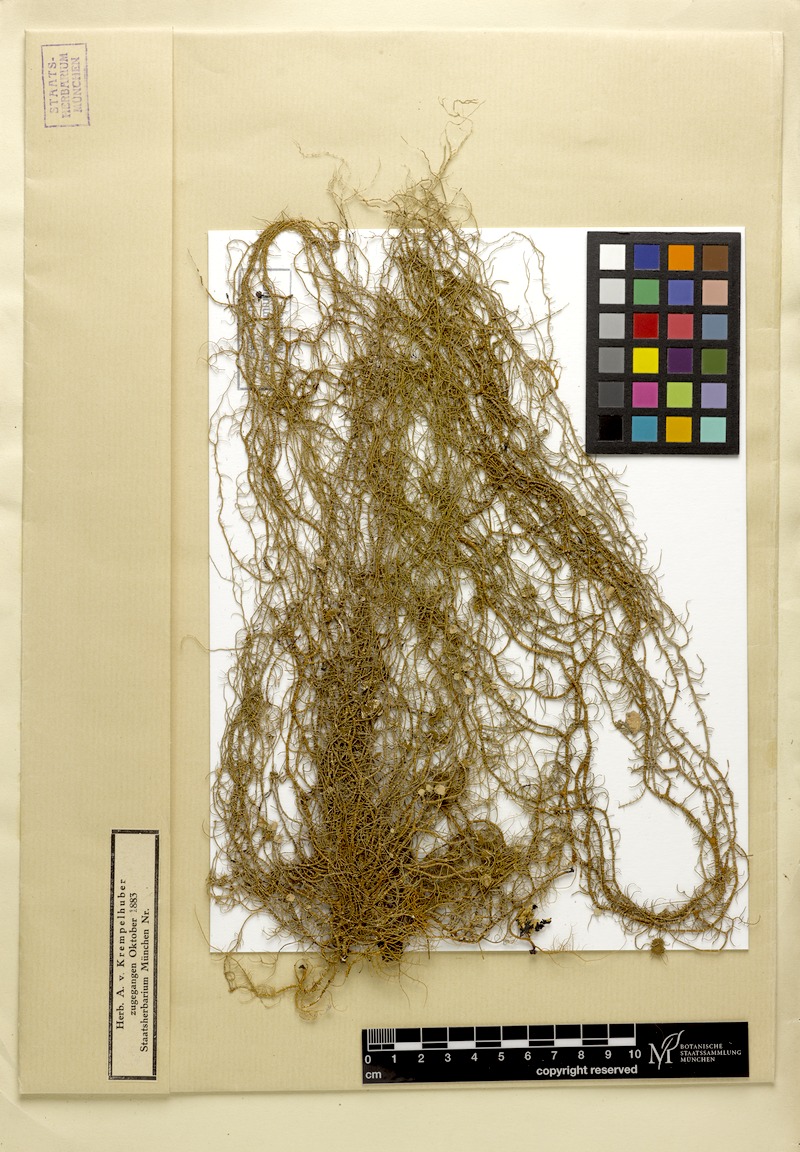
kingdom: Fungi
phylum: Ascomycota
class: Lecanoromycetes
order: Lecanorales
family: Parmeliaceae
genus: Usnea
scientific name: Usnea ceratina
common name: Warty beard lichen
